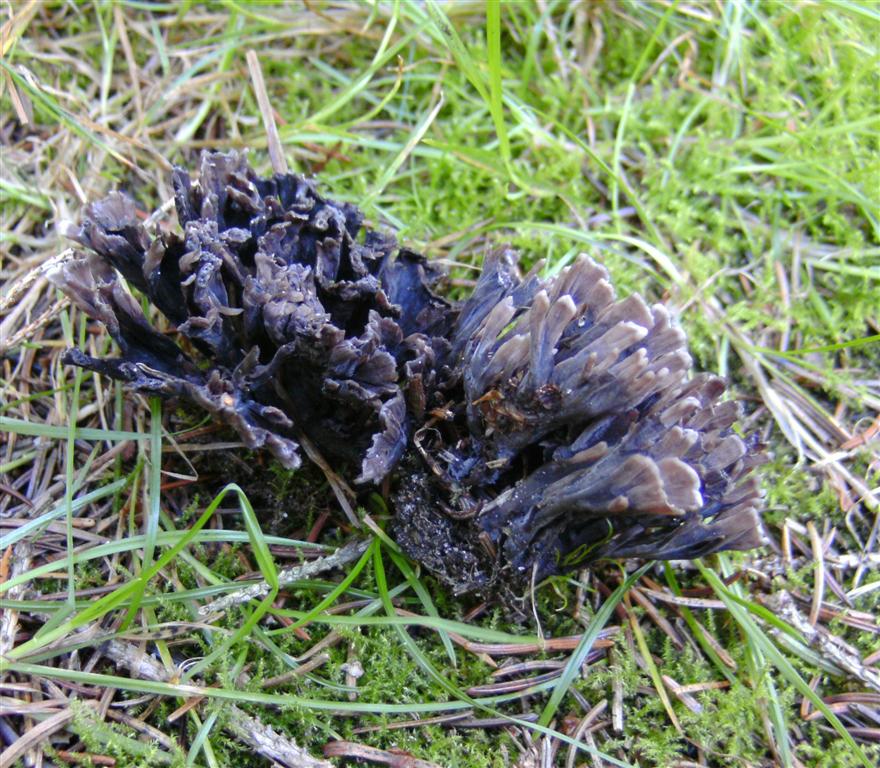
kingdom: Fungi
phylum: Basidiomycota
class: Agaricomycetes
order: Thelephorales
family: Thelephoraceae
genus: Thelephora
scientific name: Thelephora palmata
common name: grenet frynsesvamp
